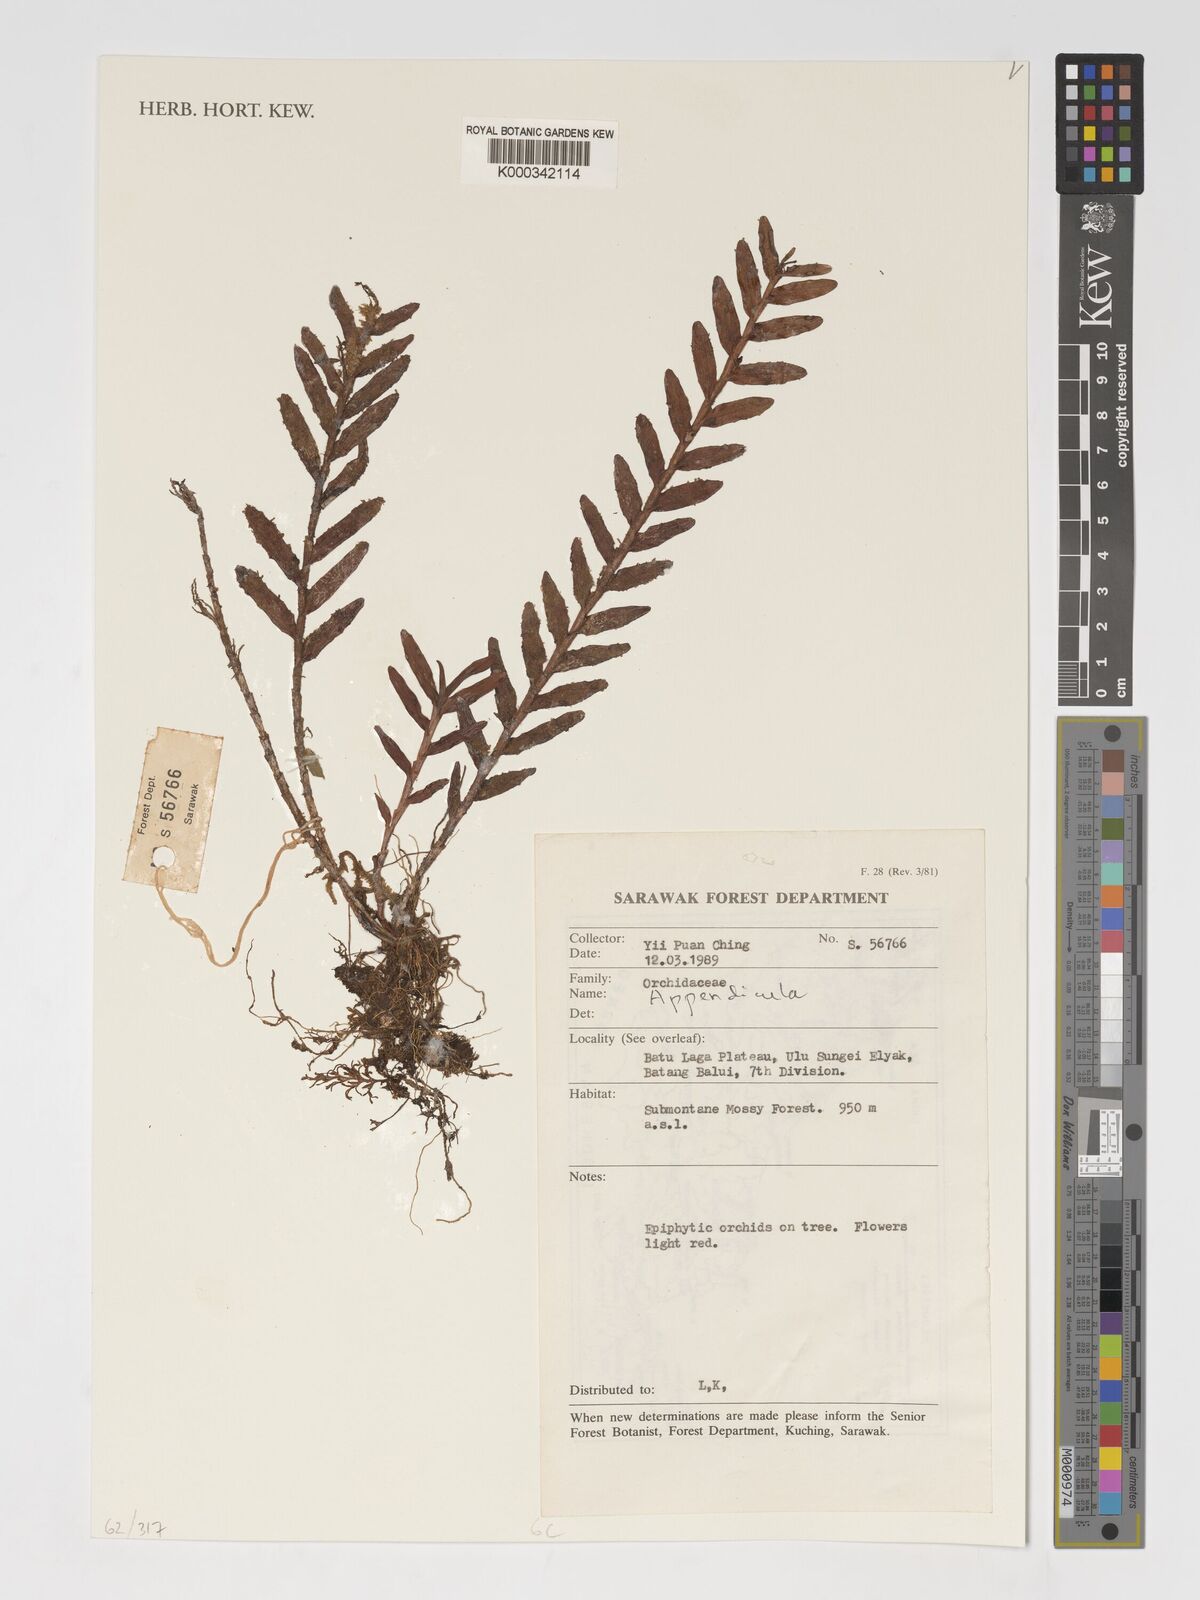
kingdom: Plantae
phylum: Tracheophyta
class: Liliopsida
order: Asparagales
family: Orchidaceae
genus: Appendicula
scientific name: Appendicula
